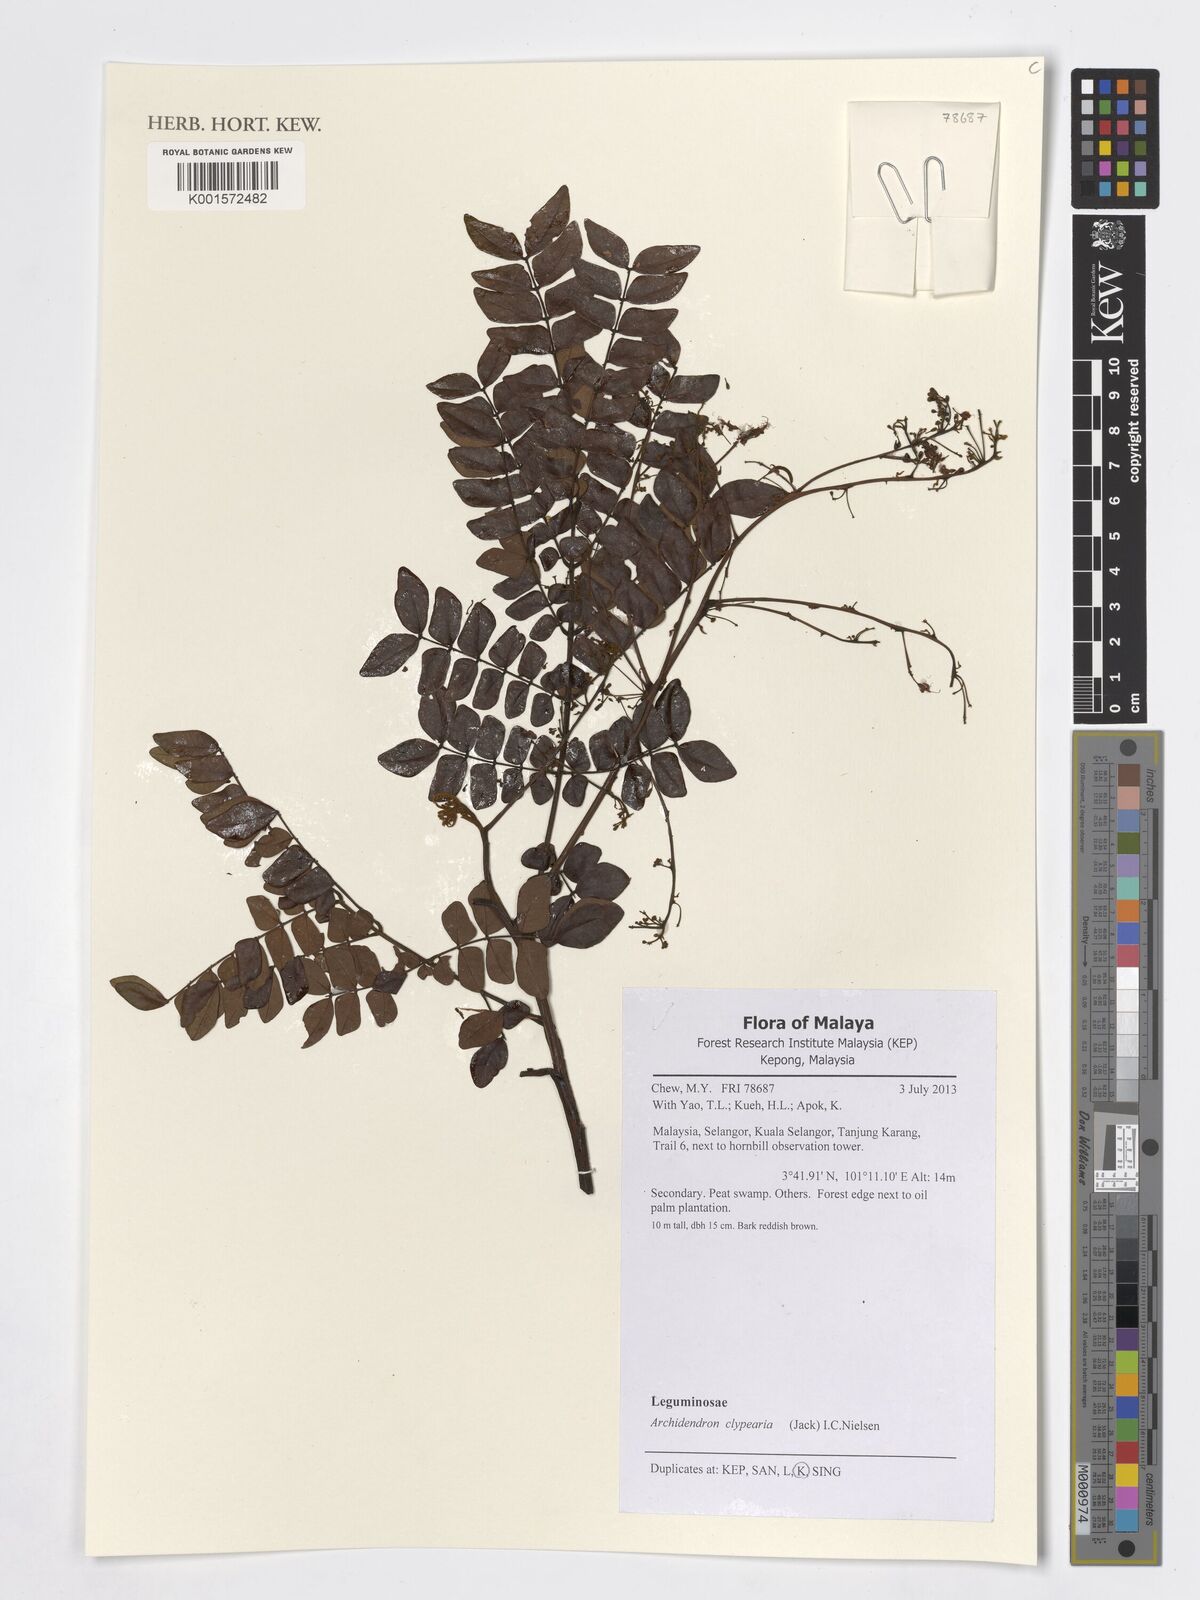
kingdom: Plantae
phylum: Tracheophyta
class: Magnoliopsida
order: Fabales
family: Fabaceae
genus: Archidendron
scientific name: Archidendron clypearia
